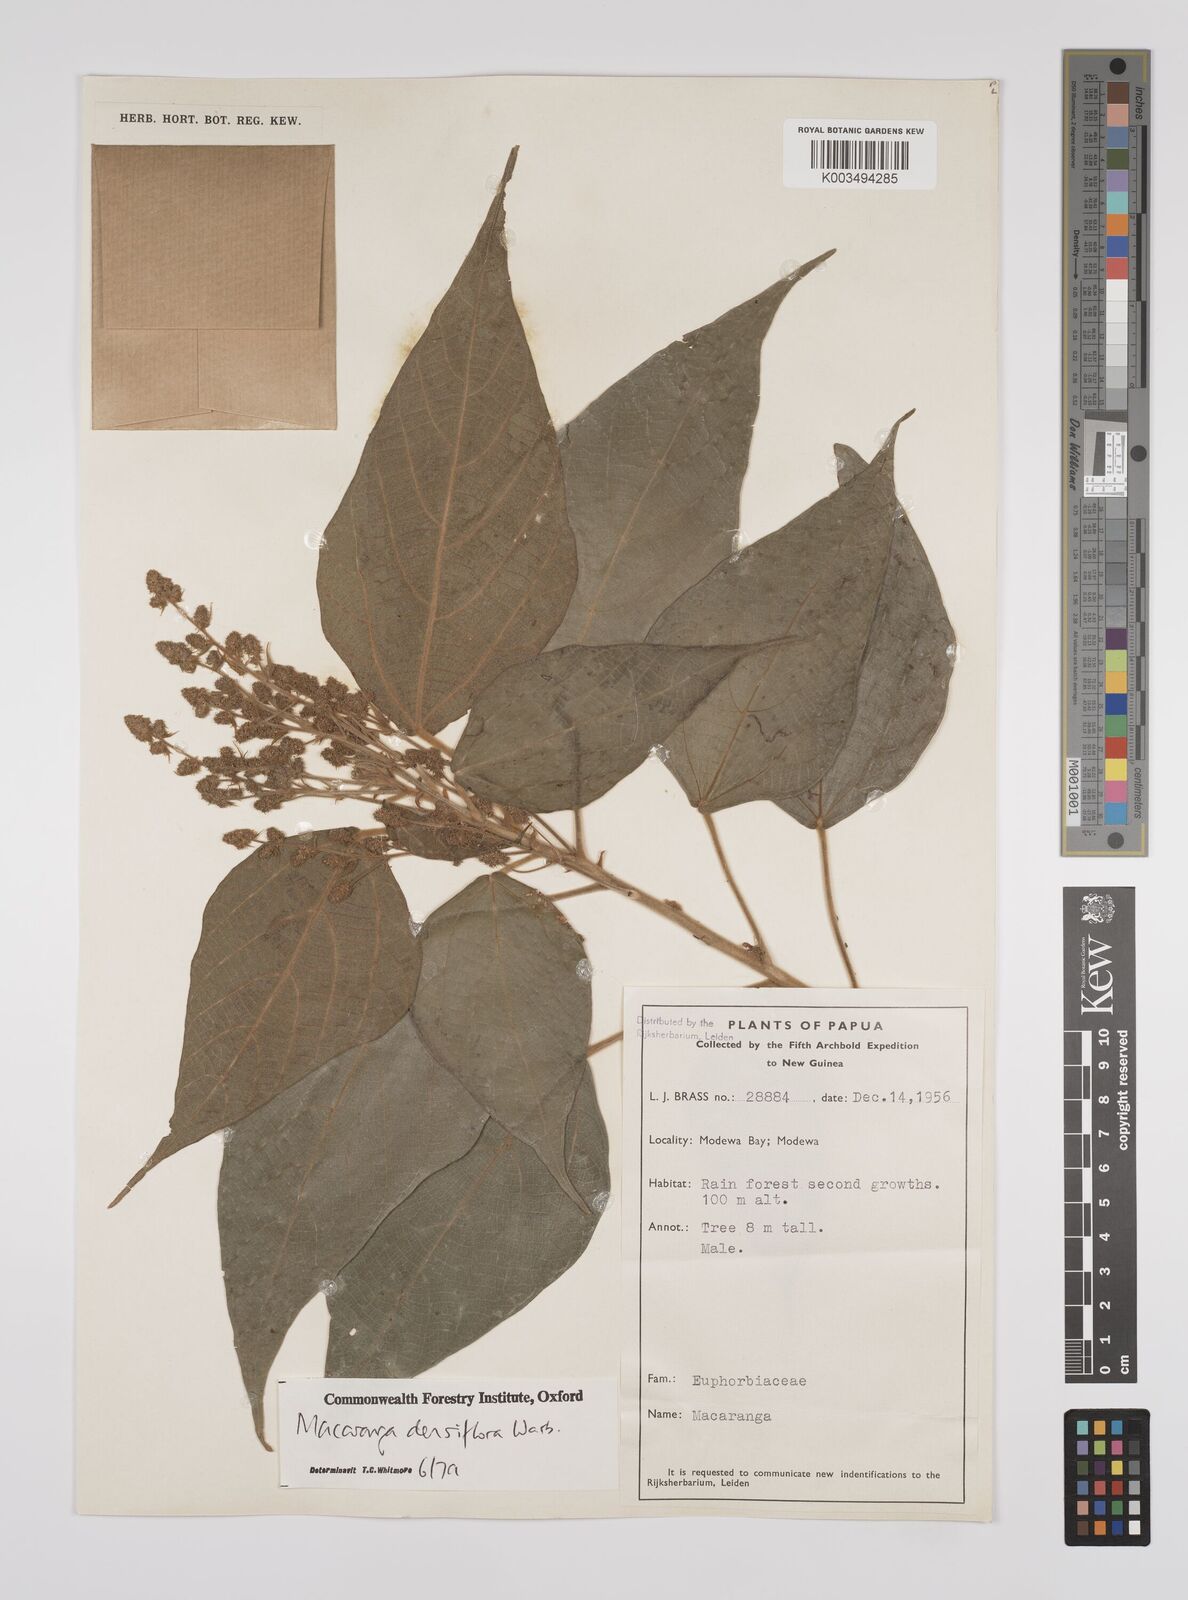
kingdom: Plantae
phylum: Tracheophyta
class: Magnoliopsida
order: Malpighiales
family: Euphorbiaceae
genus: Macaranga
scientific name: Macaranga densiflora
